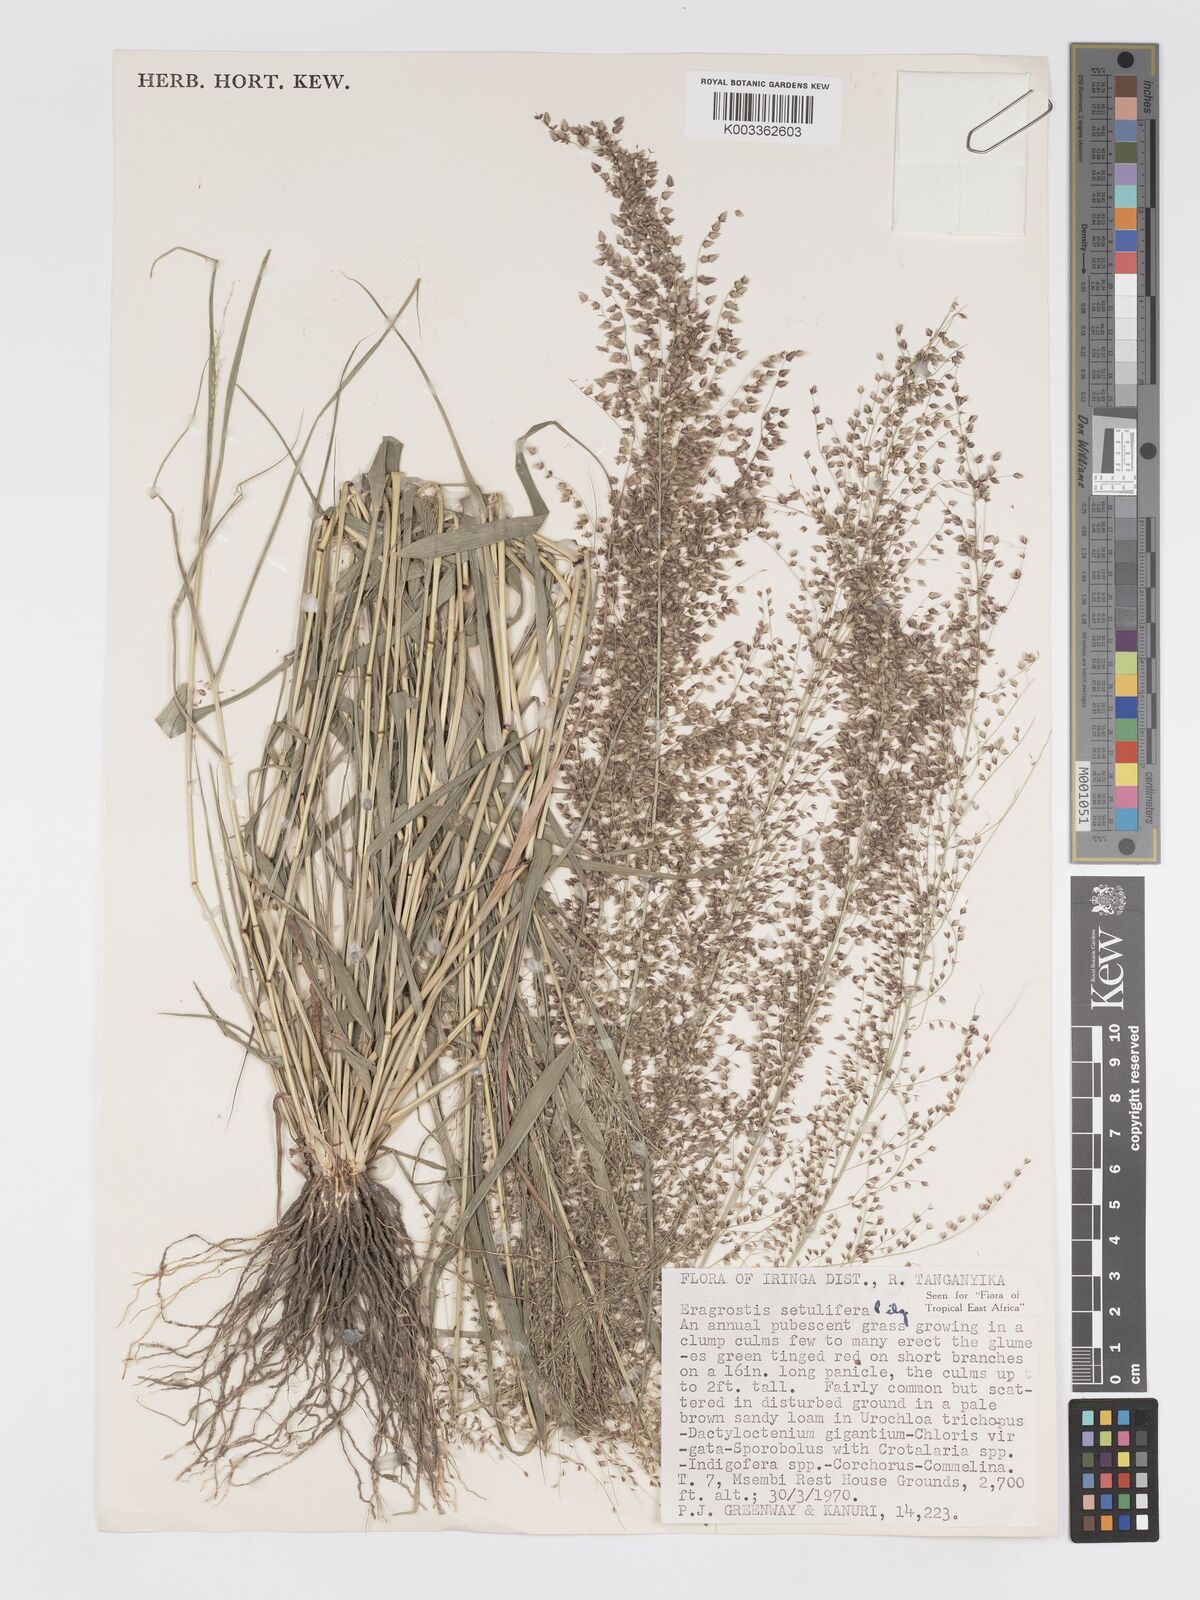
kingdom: Plantae
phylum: Tracheophyta
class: Liliopsida
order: Poales
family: Poaceae
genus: Eragrostis
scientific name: Eragrostis setulifera
